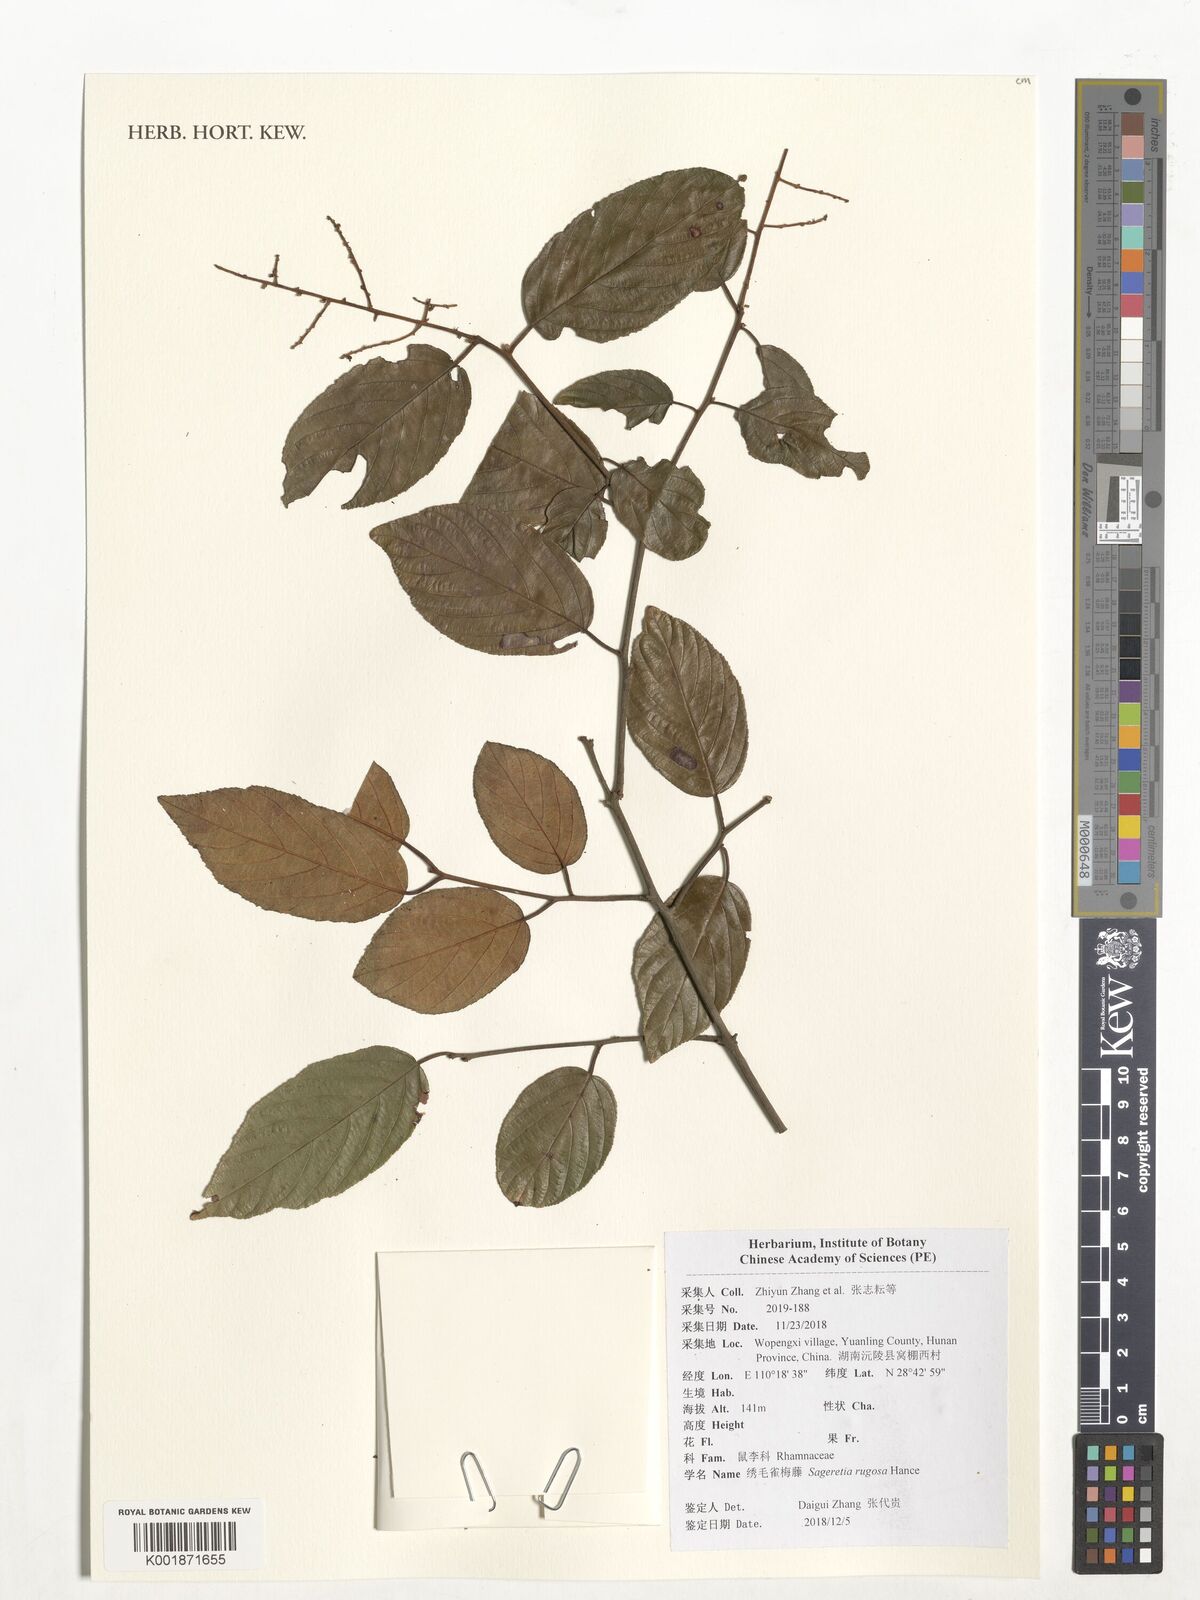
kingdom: Plantae
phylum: Tracheophyta
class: Magnoliopsida
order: Rosales
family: Rhamnaceae
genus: Sageretia
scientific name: Sageretia rugosa
